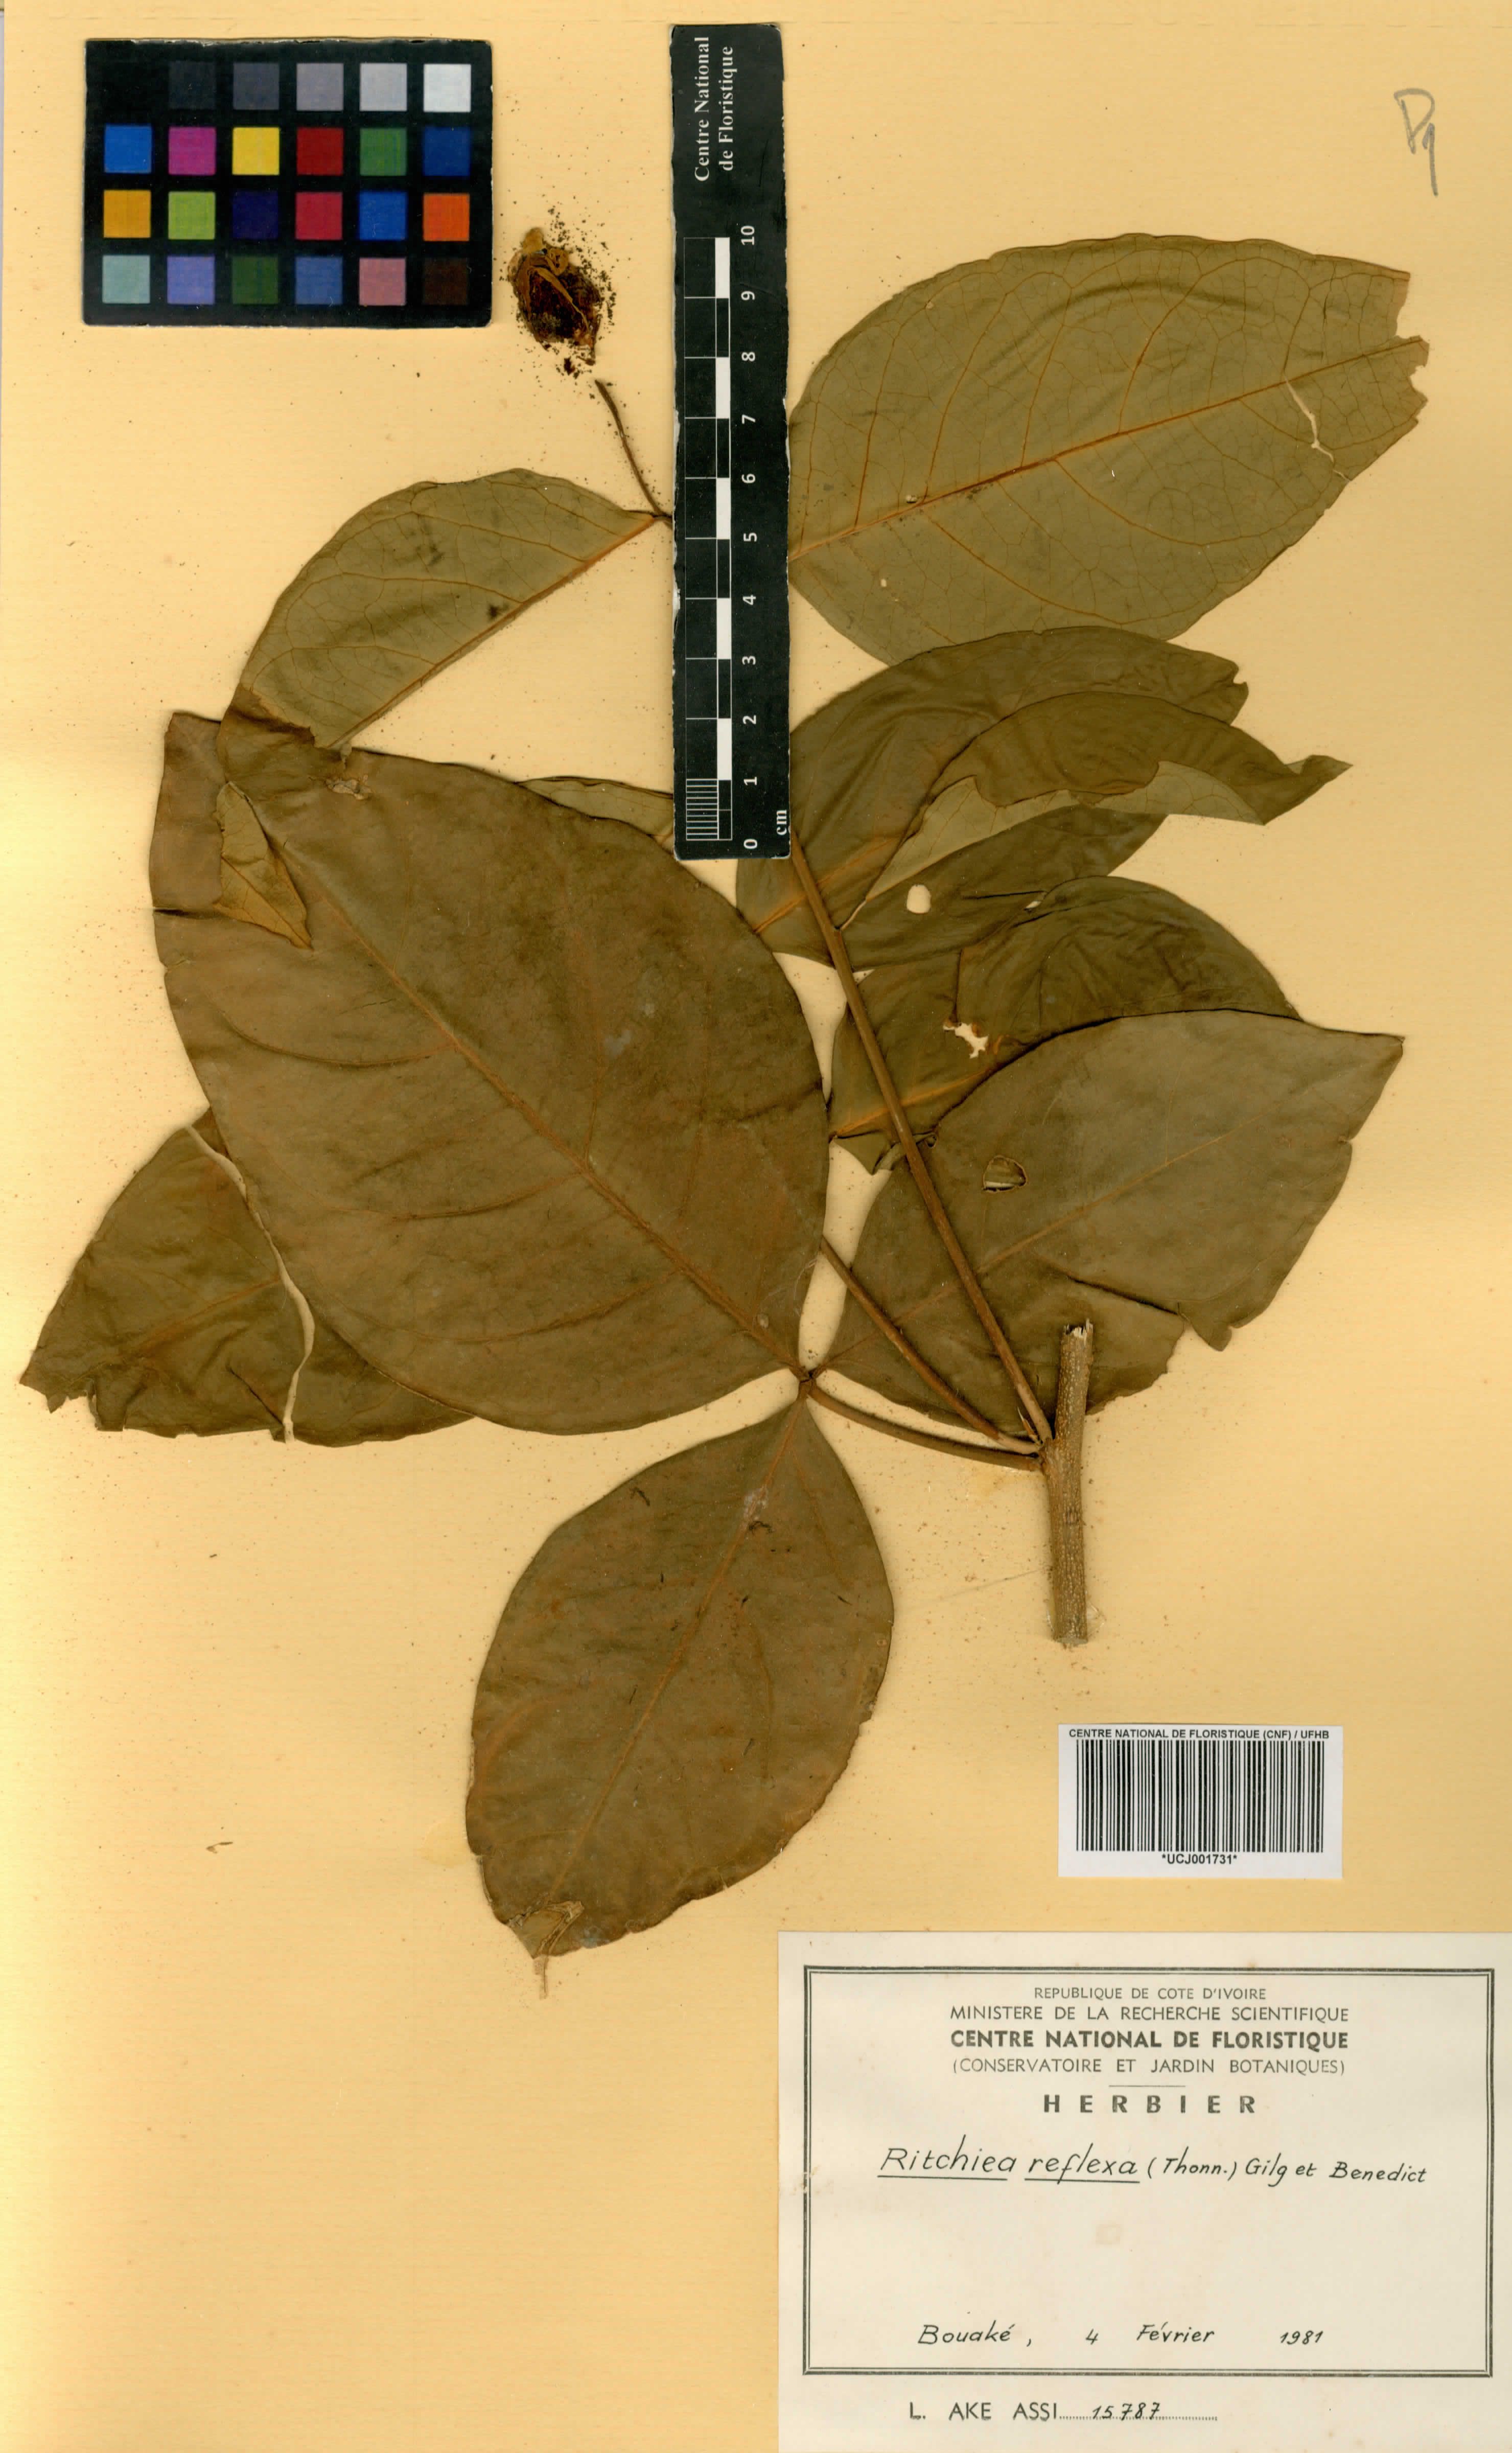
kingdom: Plantae
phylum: Tracheophyta
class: Magnoliopsida
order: Brassicales
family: Capparaceae
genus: Ritchiea
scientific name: Ritchiea reflexa
